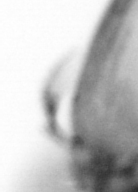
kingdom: Animalia
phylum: Arthropoda
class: Copepoda
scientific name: Copepoda
